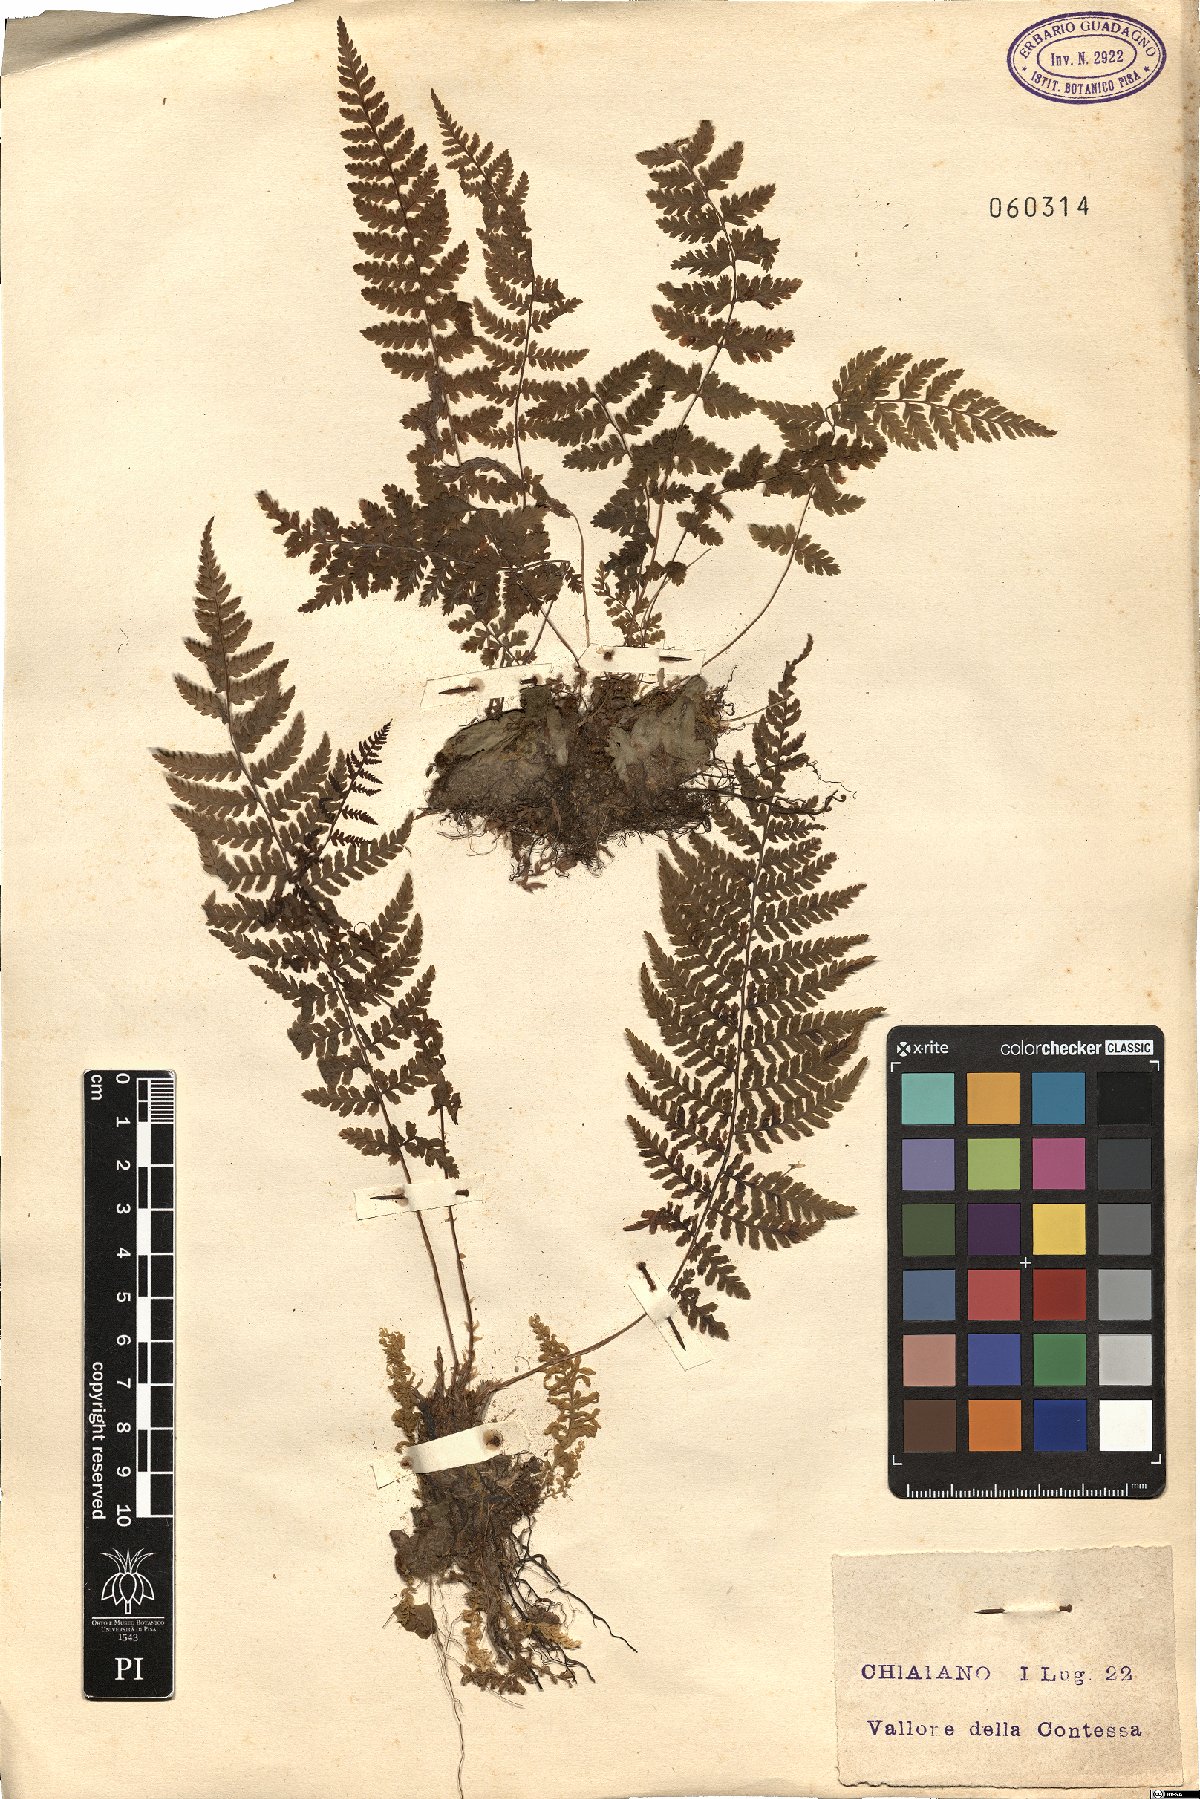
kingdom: Plantae
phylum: Tracheophyta
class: Polypodiopsida
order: Polypodiales
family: Cystopteridaceae
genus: Cystopteris
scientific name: Cystopteris fragilis
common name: Brittle bladder fern
